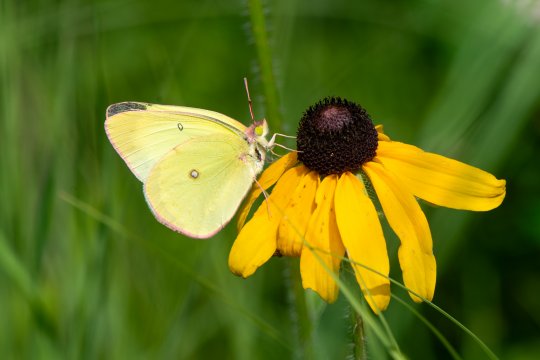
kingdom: Animalia
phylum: Arthropoda
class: Insecta
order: Lepidoptera
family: Pieridae
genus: Colias
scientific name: Colias interior
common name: Pink-edged Sulphur
